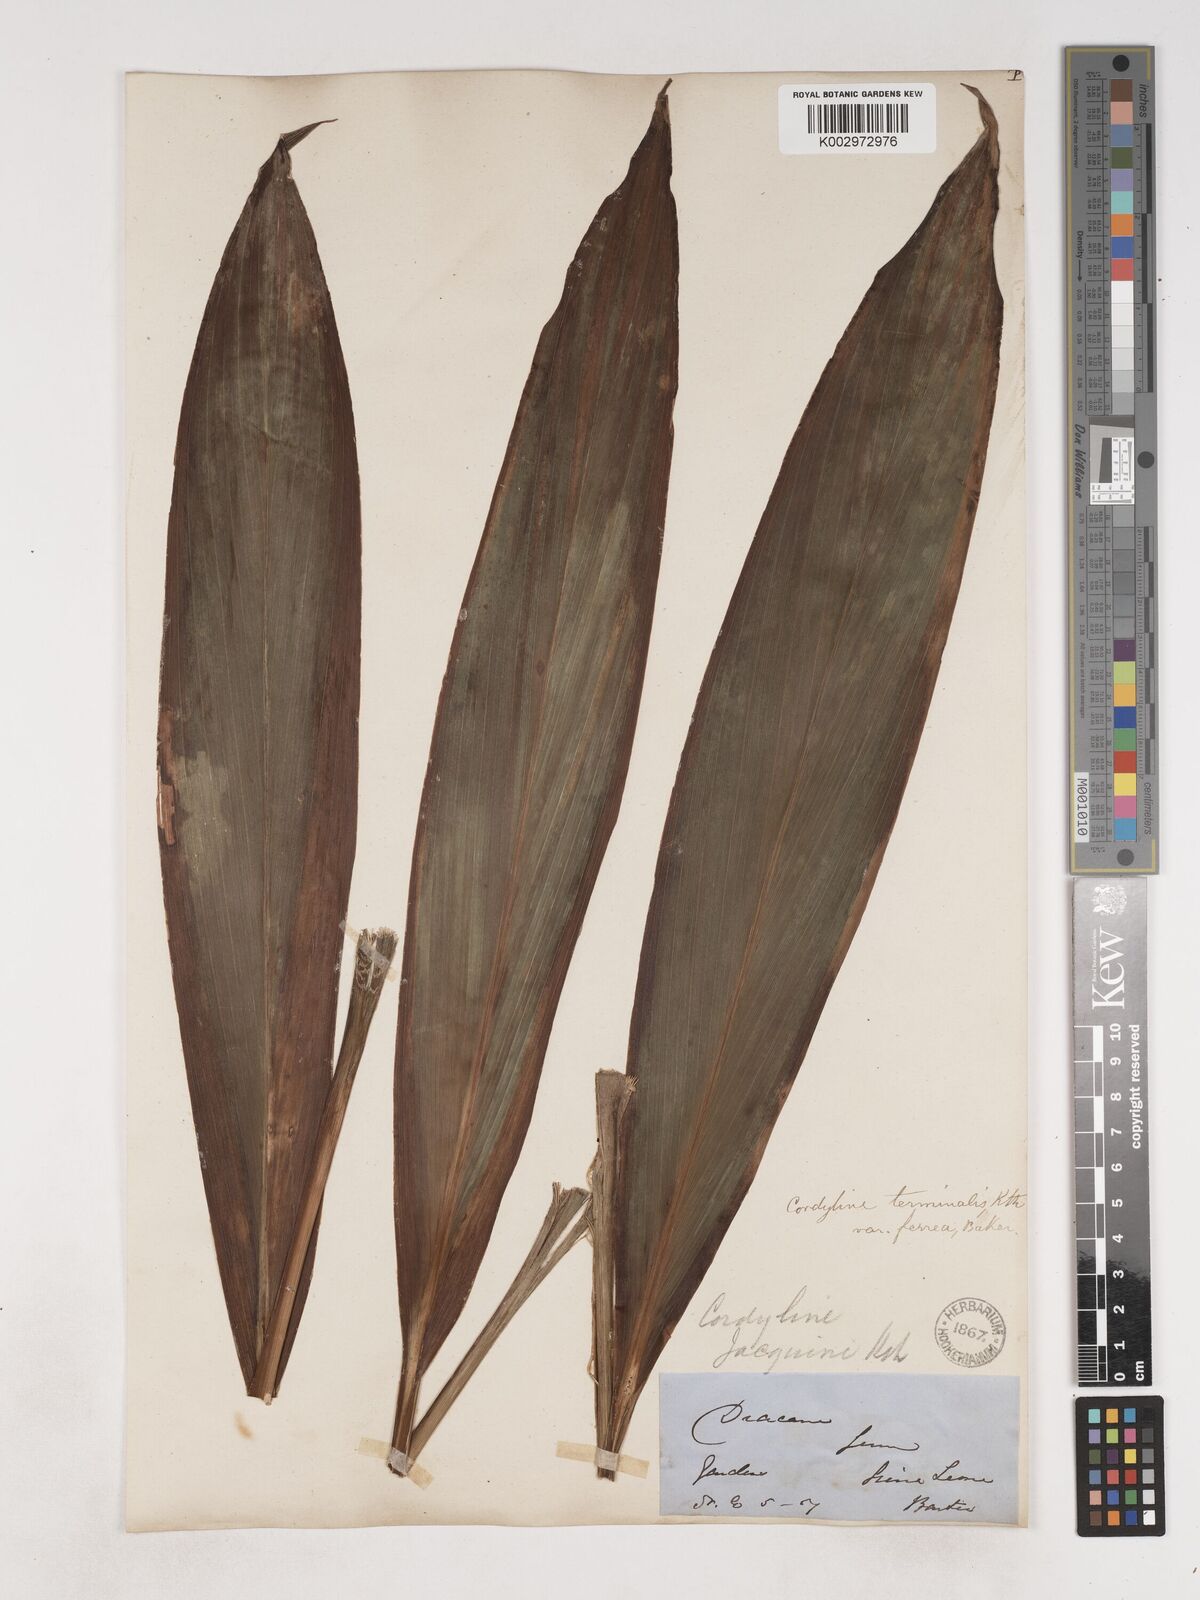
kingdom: Plantae
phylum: Tracheophyta
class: Liliopsida
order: Asparagales
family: Asparagaceae
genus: Cordyline
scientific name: Cordyline fruticosa
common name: Good-luck-plant
